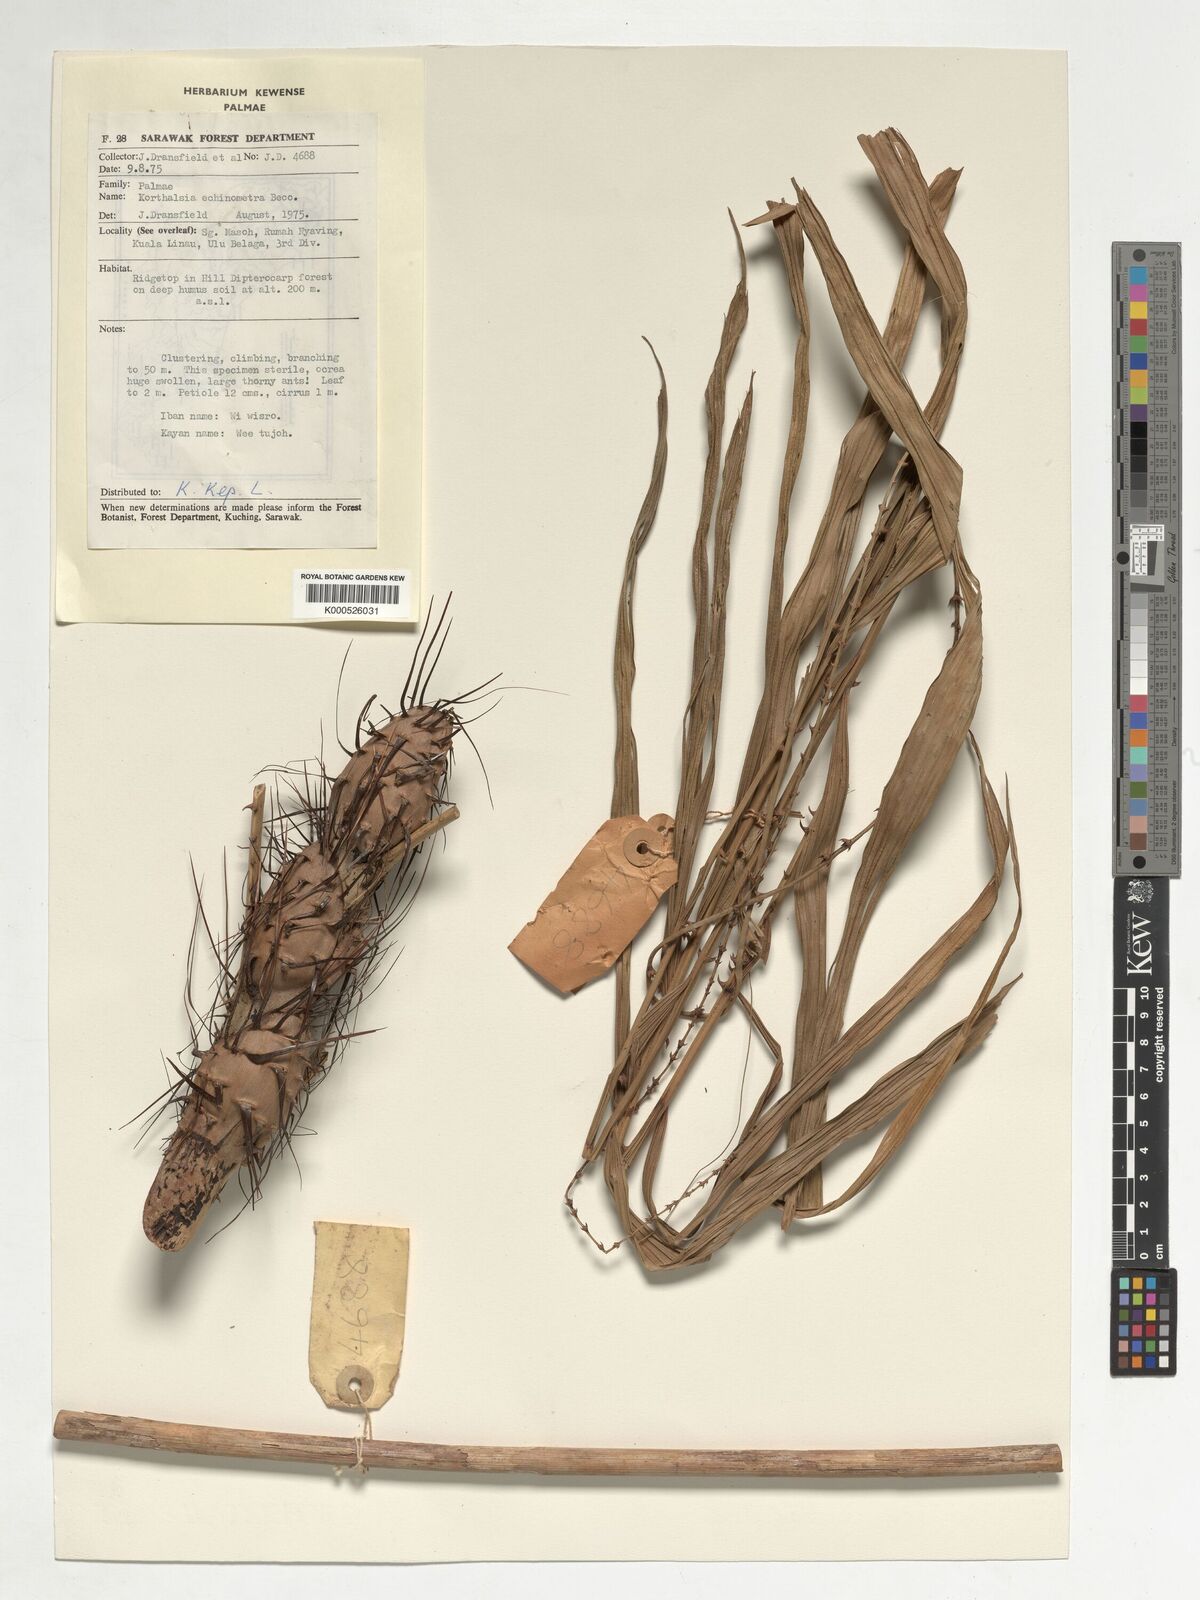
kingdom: Plantae
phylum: Tracheophyta
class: Liliopsida
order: Arecales
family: Arecaceae
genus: Korthalsia
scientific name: Korthalsia echinometra
